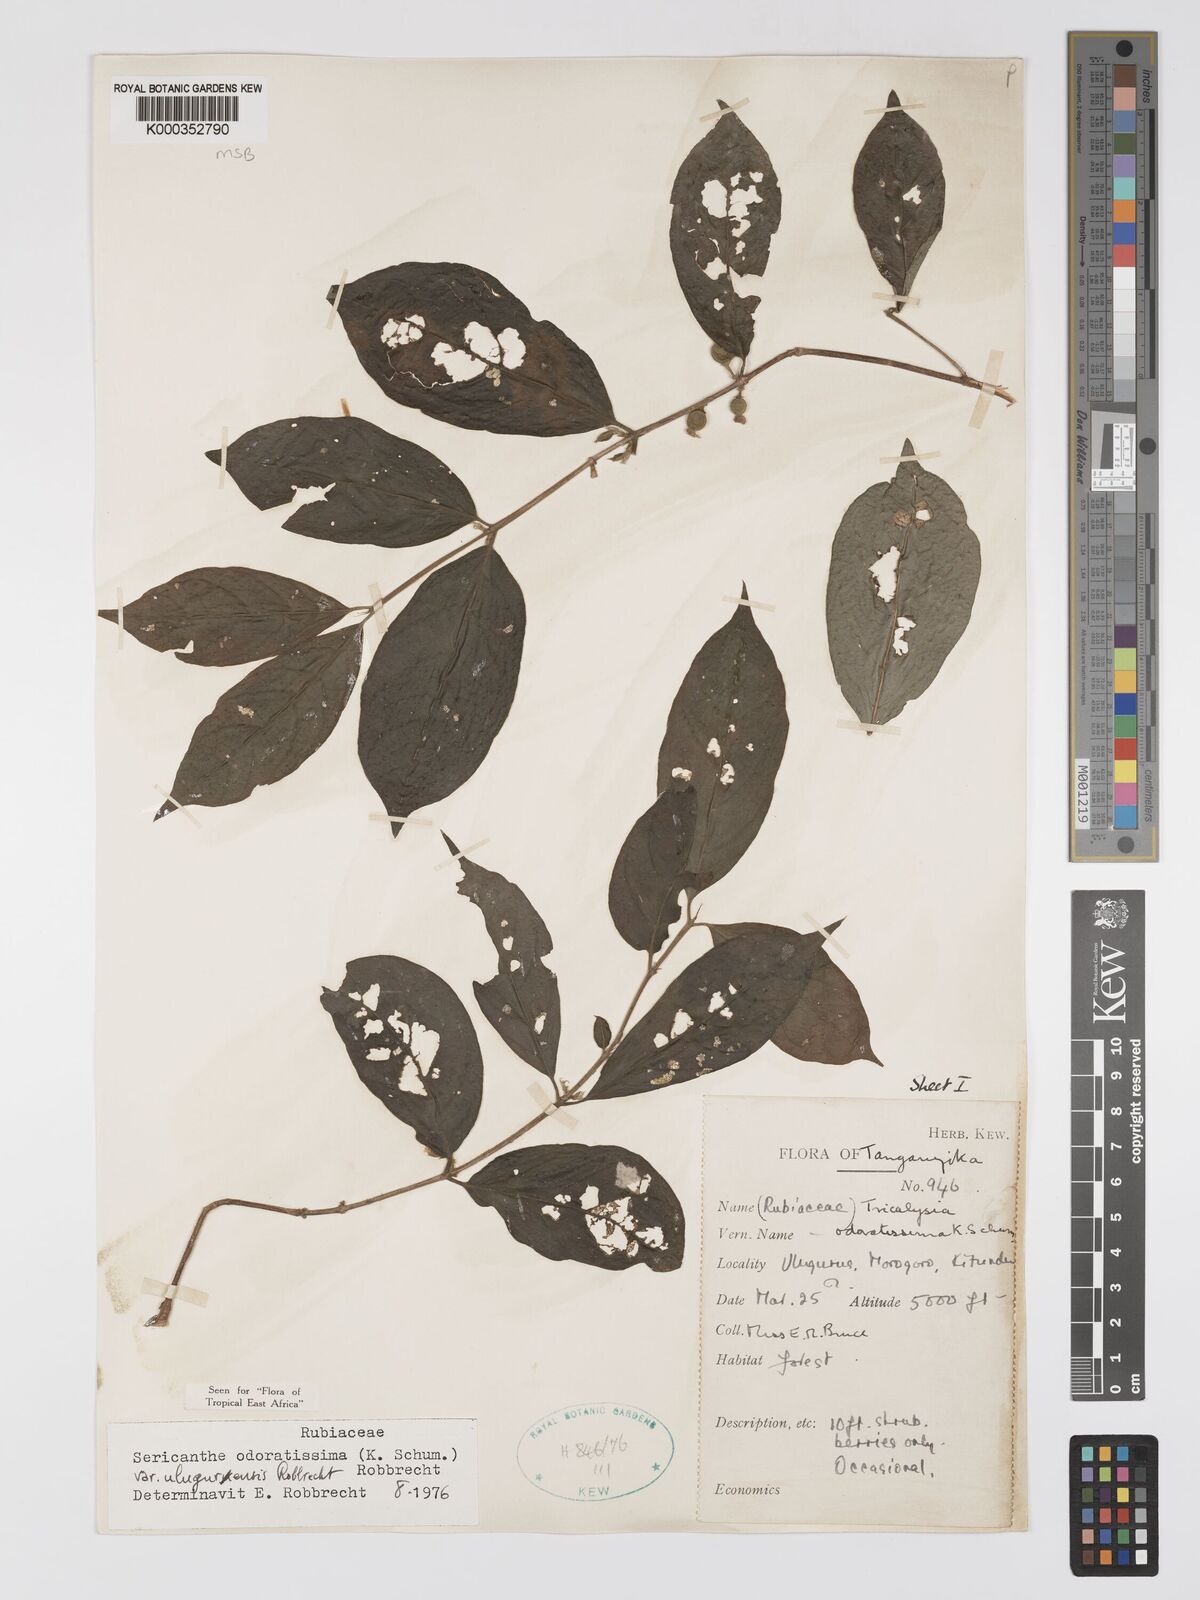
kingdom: Plantae
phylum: Tracheophyta
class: Magnoliopsida
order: Gentianales
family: Rubiaceae
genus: Sericanthe
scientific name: Sericanthe odoratissima
